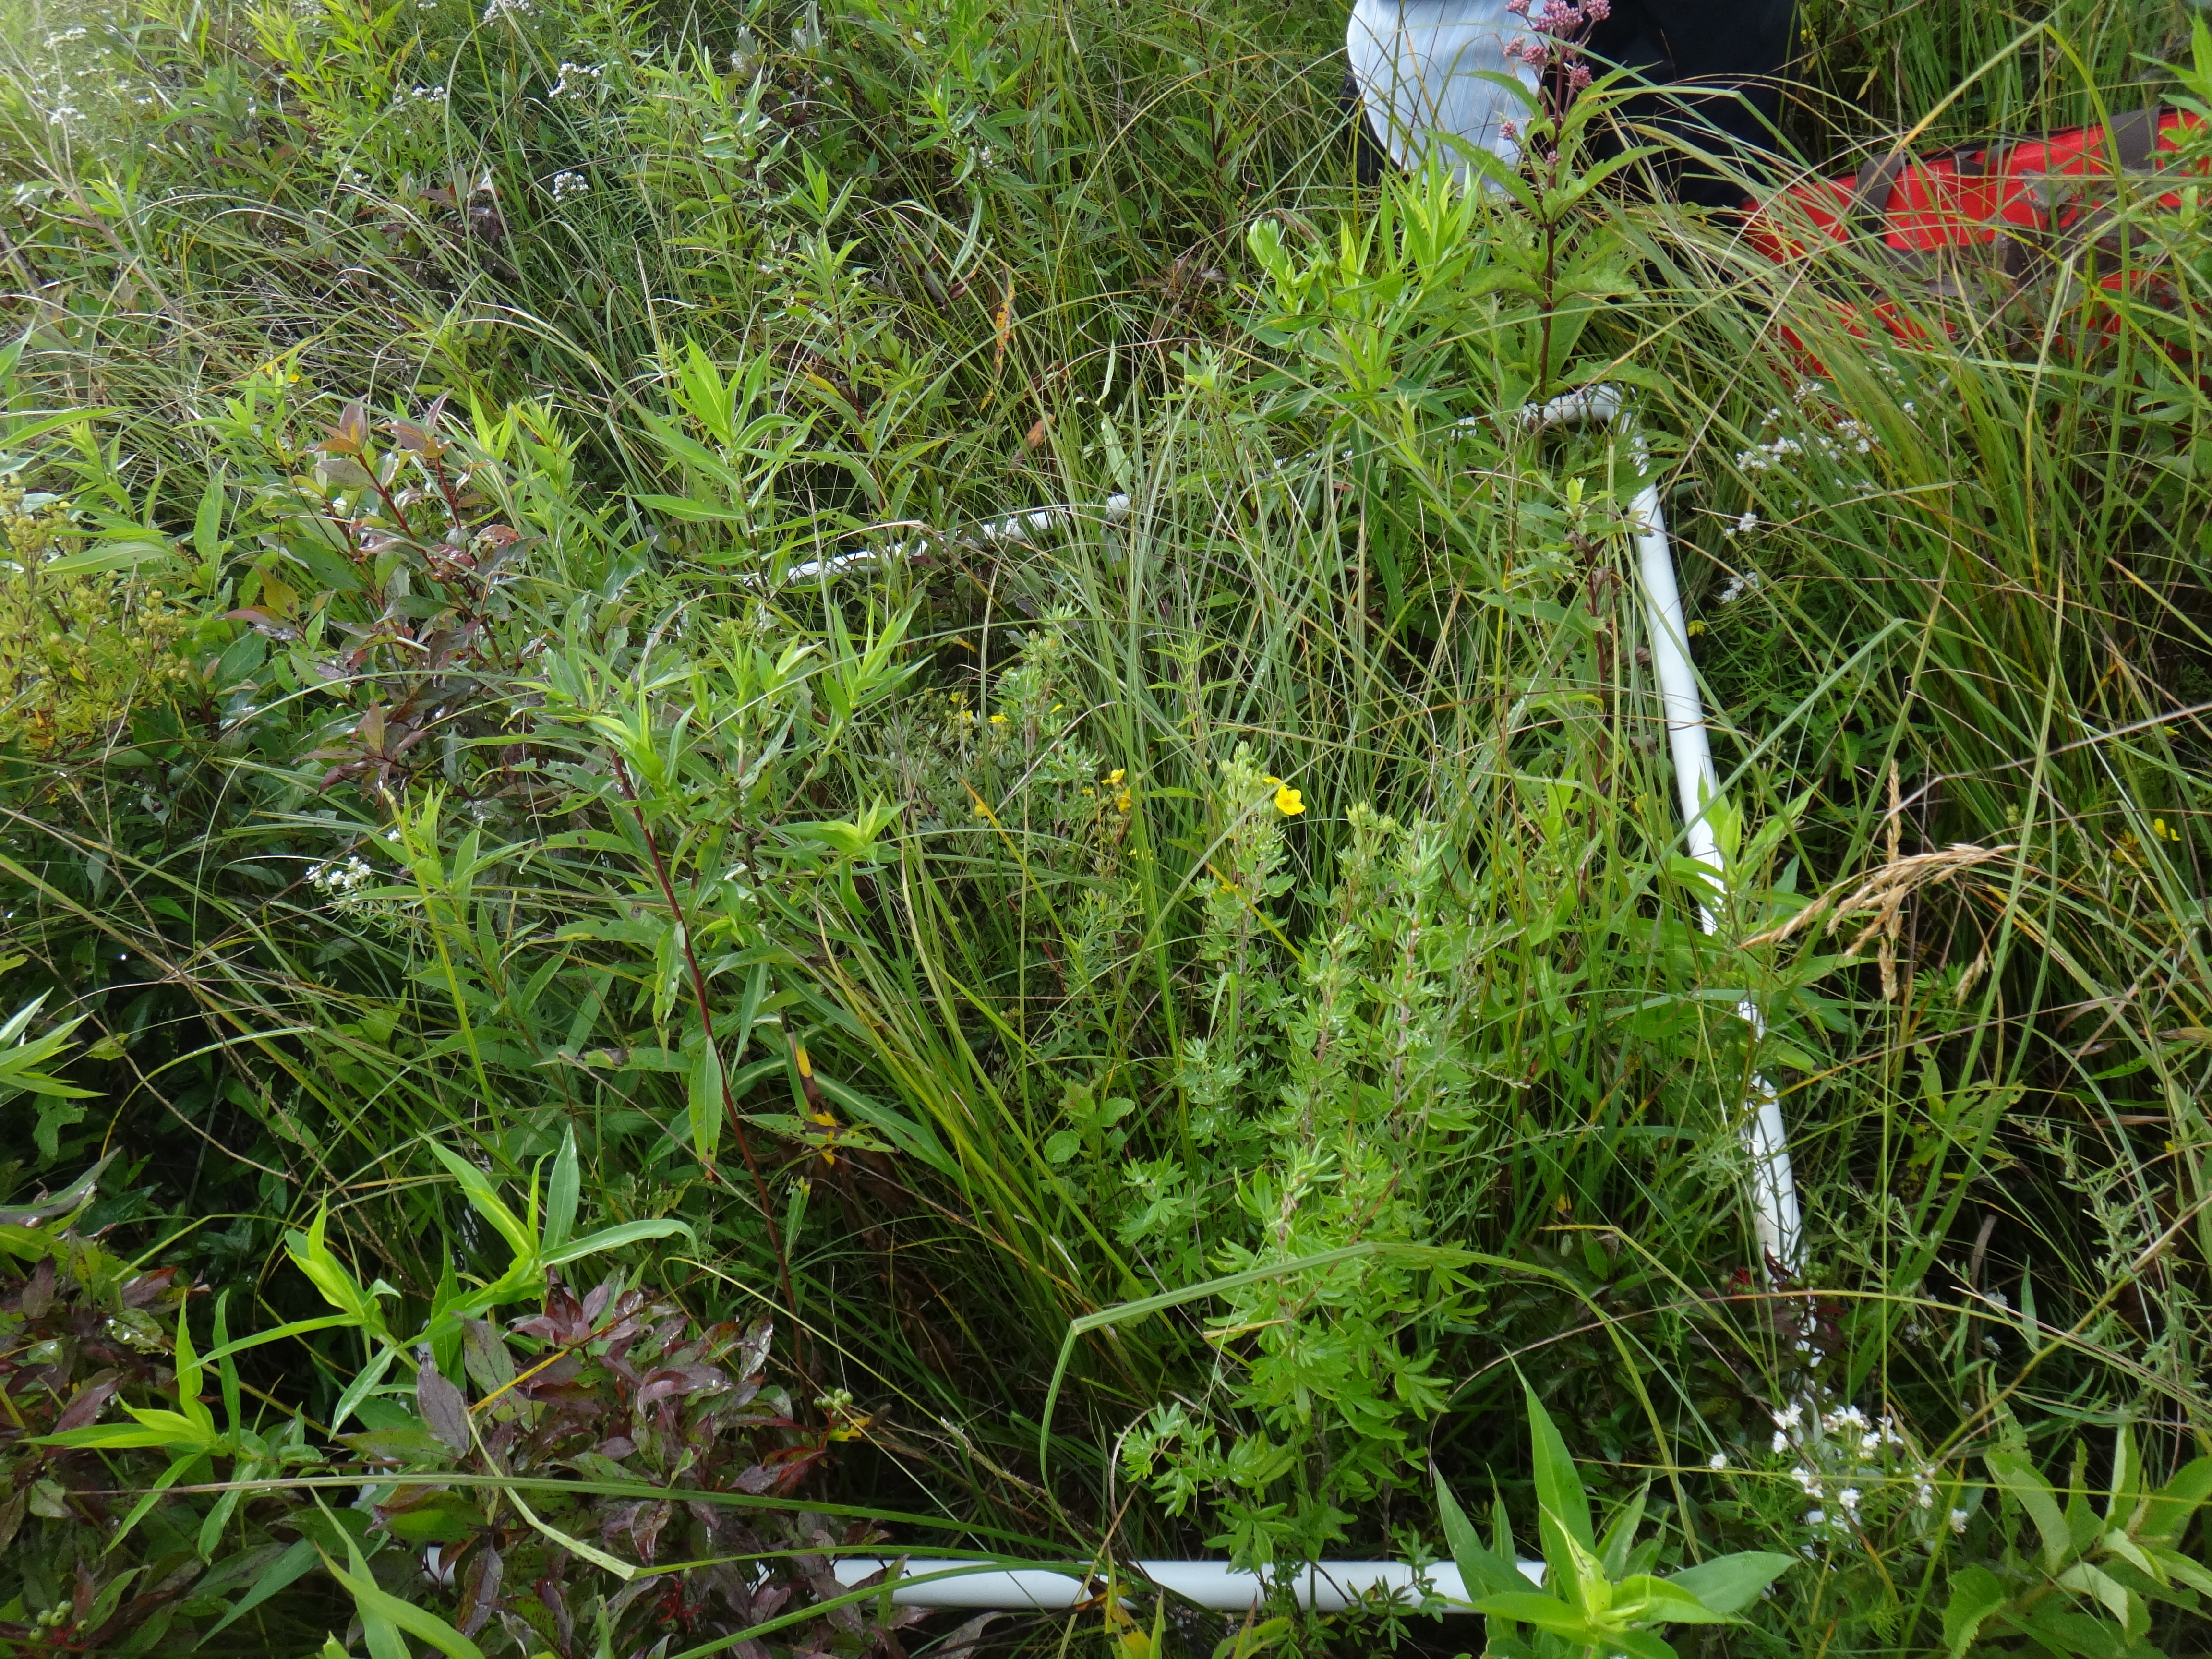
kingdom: Plantae
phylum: Tracheophyta
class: Liliopsida
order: Poales
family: Poaceae
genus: Bromus
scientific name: Bromus ciliatus
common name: Fringe brome
